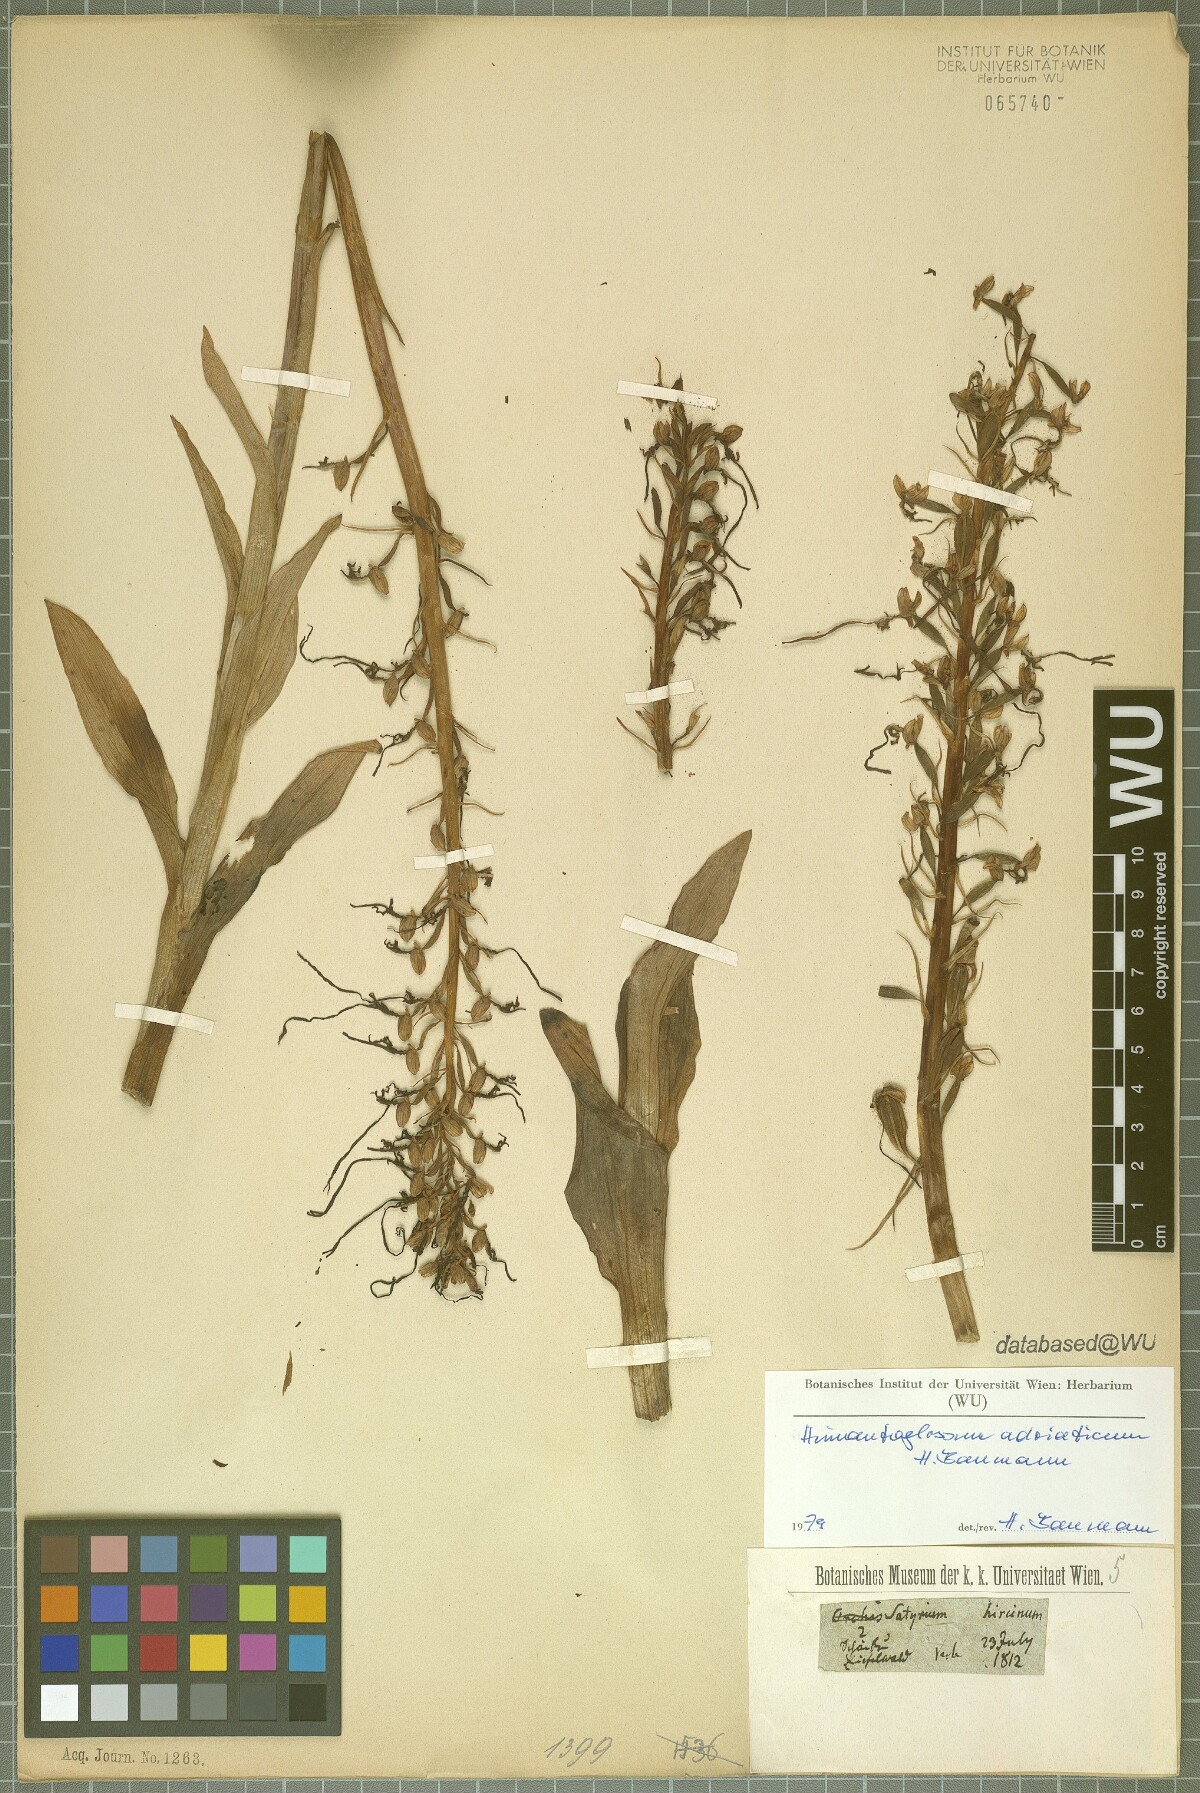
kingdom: Plantae
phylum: Tracheophyta
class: Liliopsida
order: Asparagales
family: Orchidaceae
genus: Himantoglossum
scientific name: Himantoglossum adriaticum
